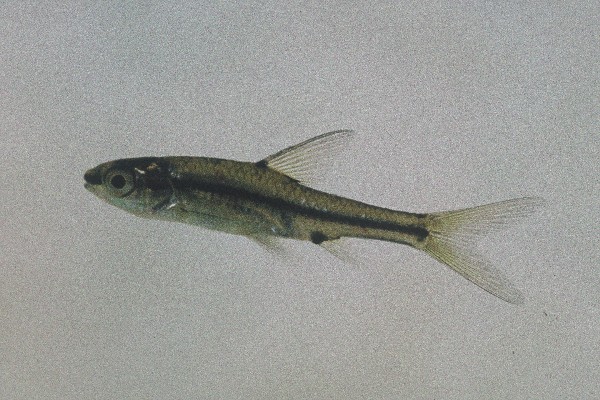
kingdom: Animalia
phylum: Chordata
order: Cypriniformes
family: Cyprinidae
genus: Enteromius
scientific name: Enteromius barnardi
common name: Blackback barb
